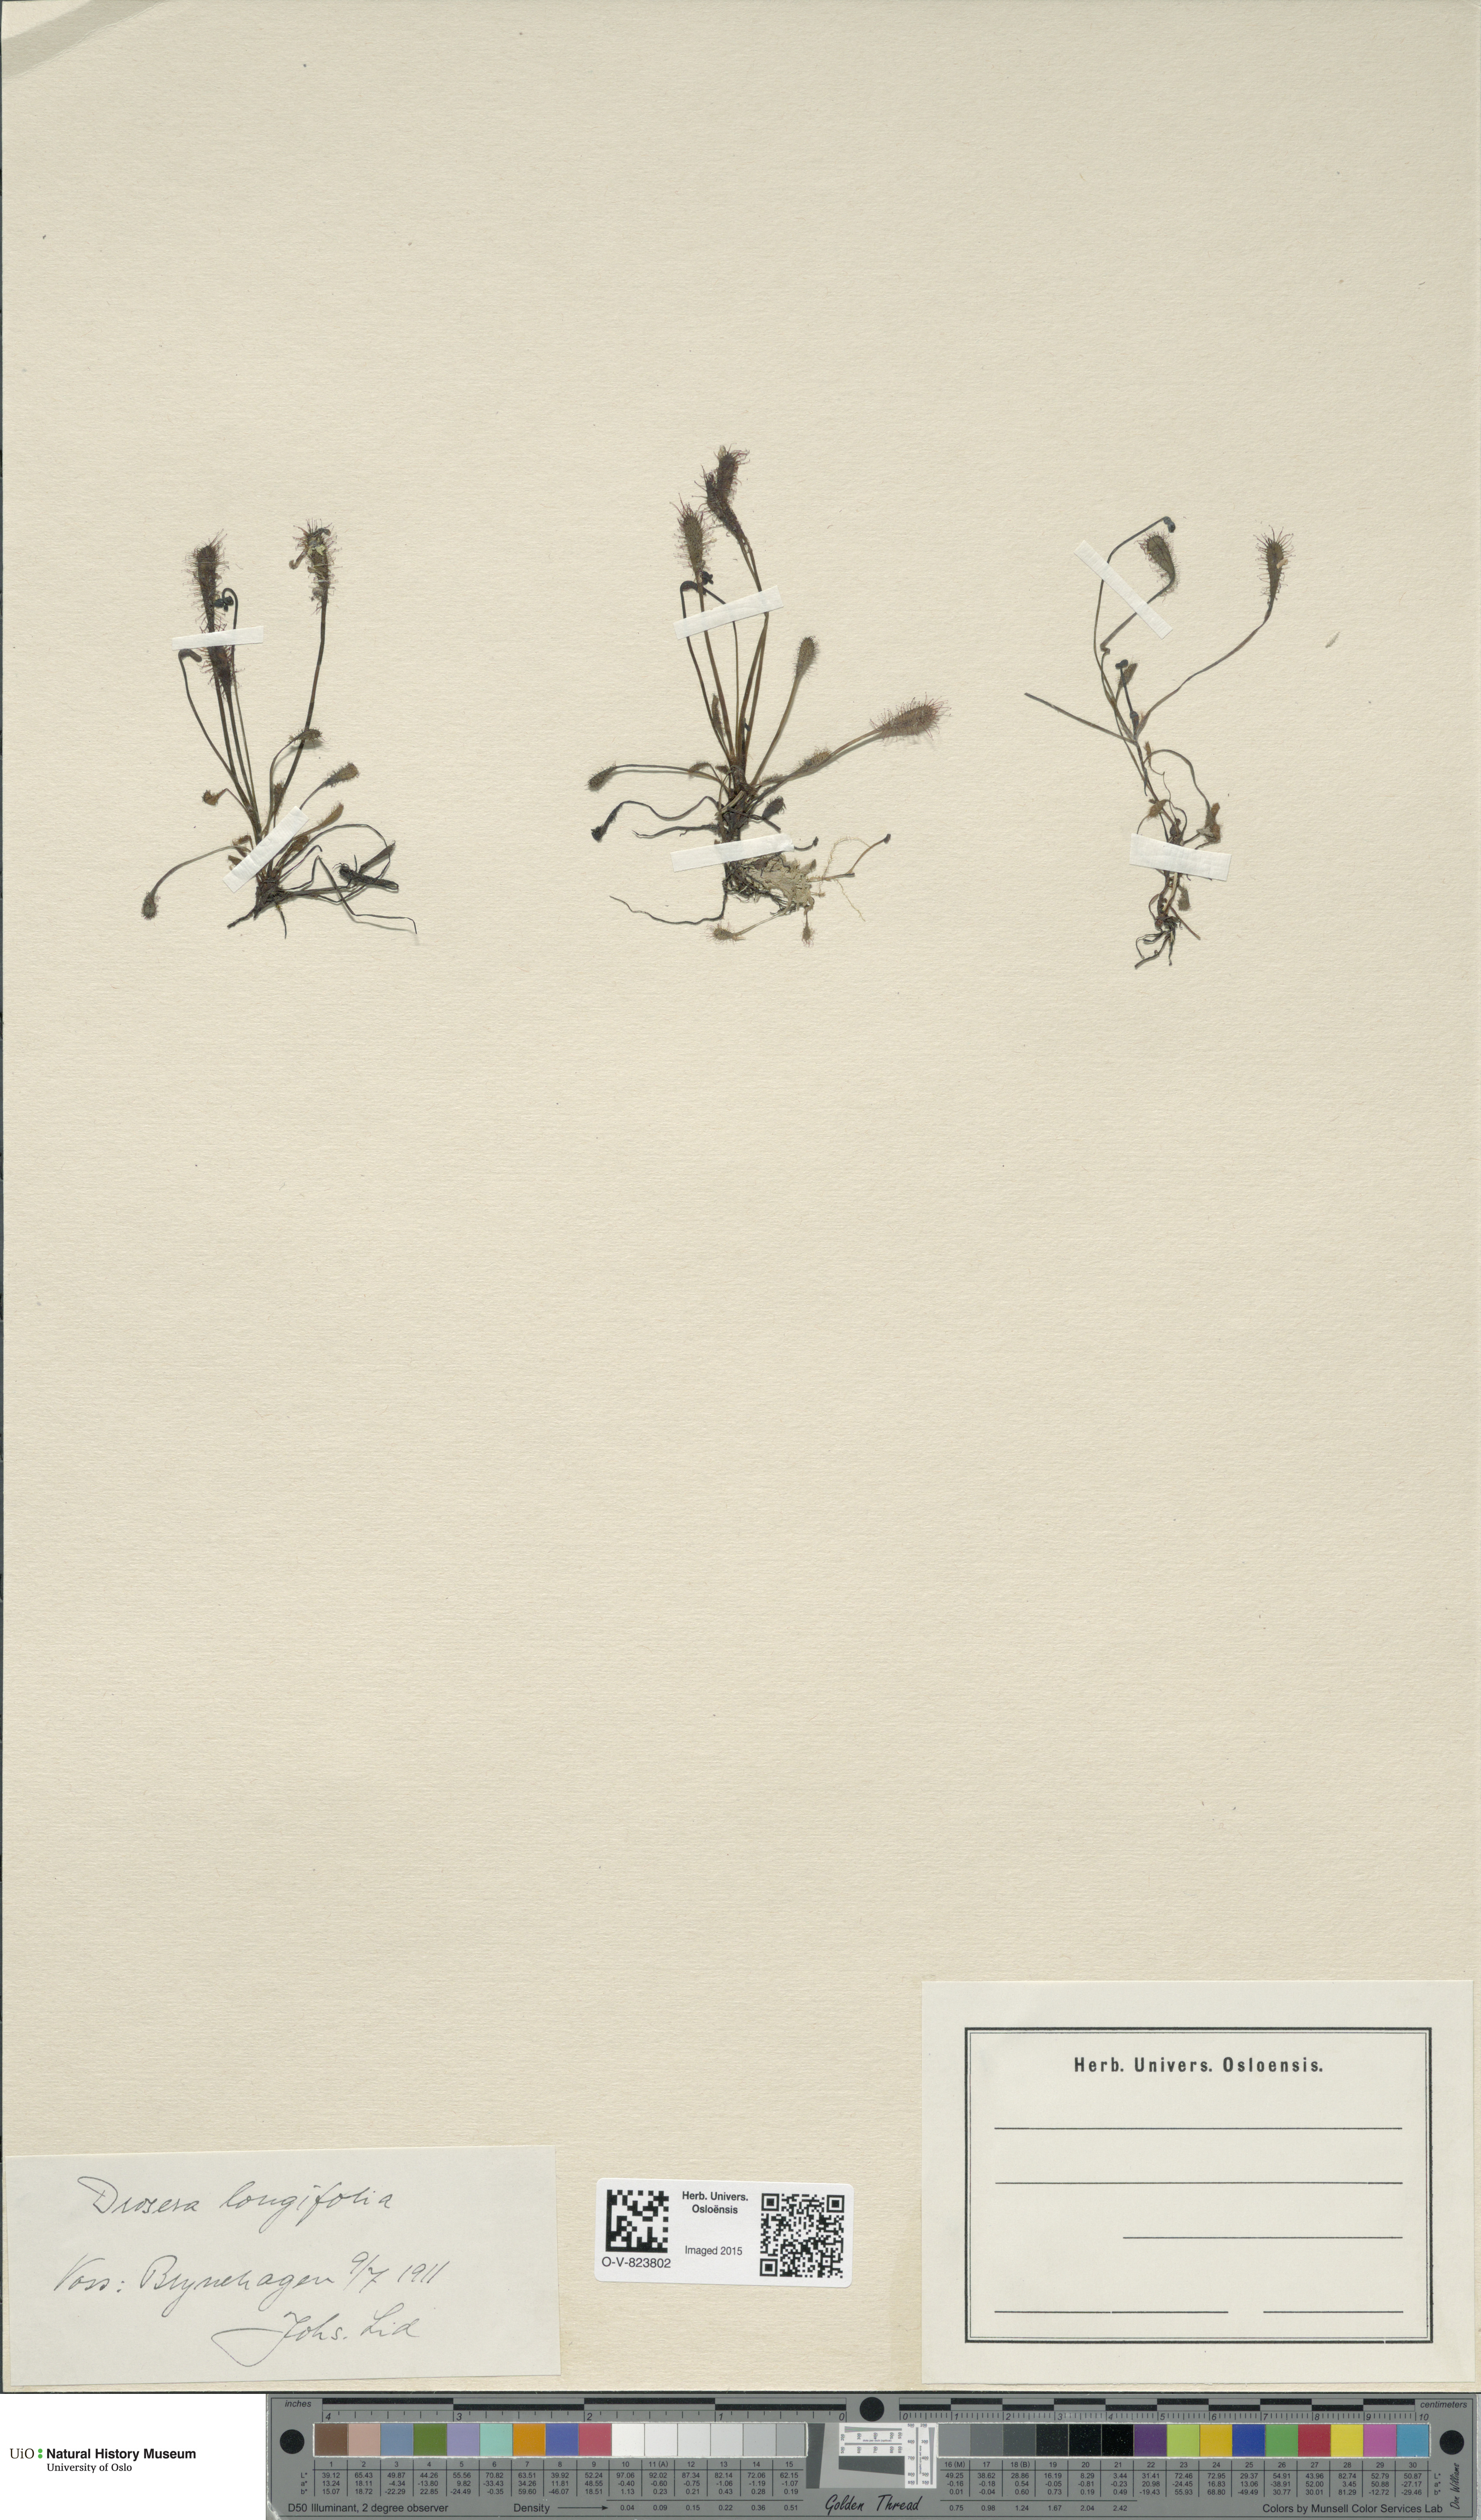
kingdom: Plantae
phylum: Tracheophyta
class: Magnoliopsida
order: Caryophyllales
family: Droseraceae
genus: Drosera
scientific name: Drosera anglica
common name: Great sundew
